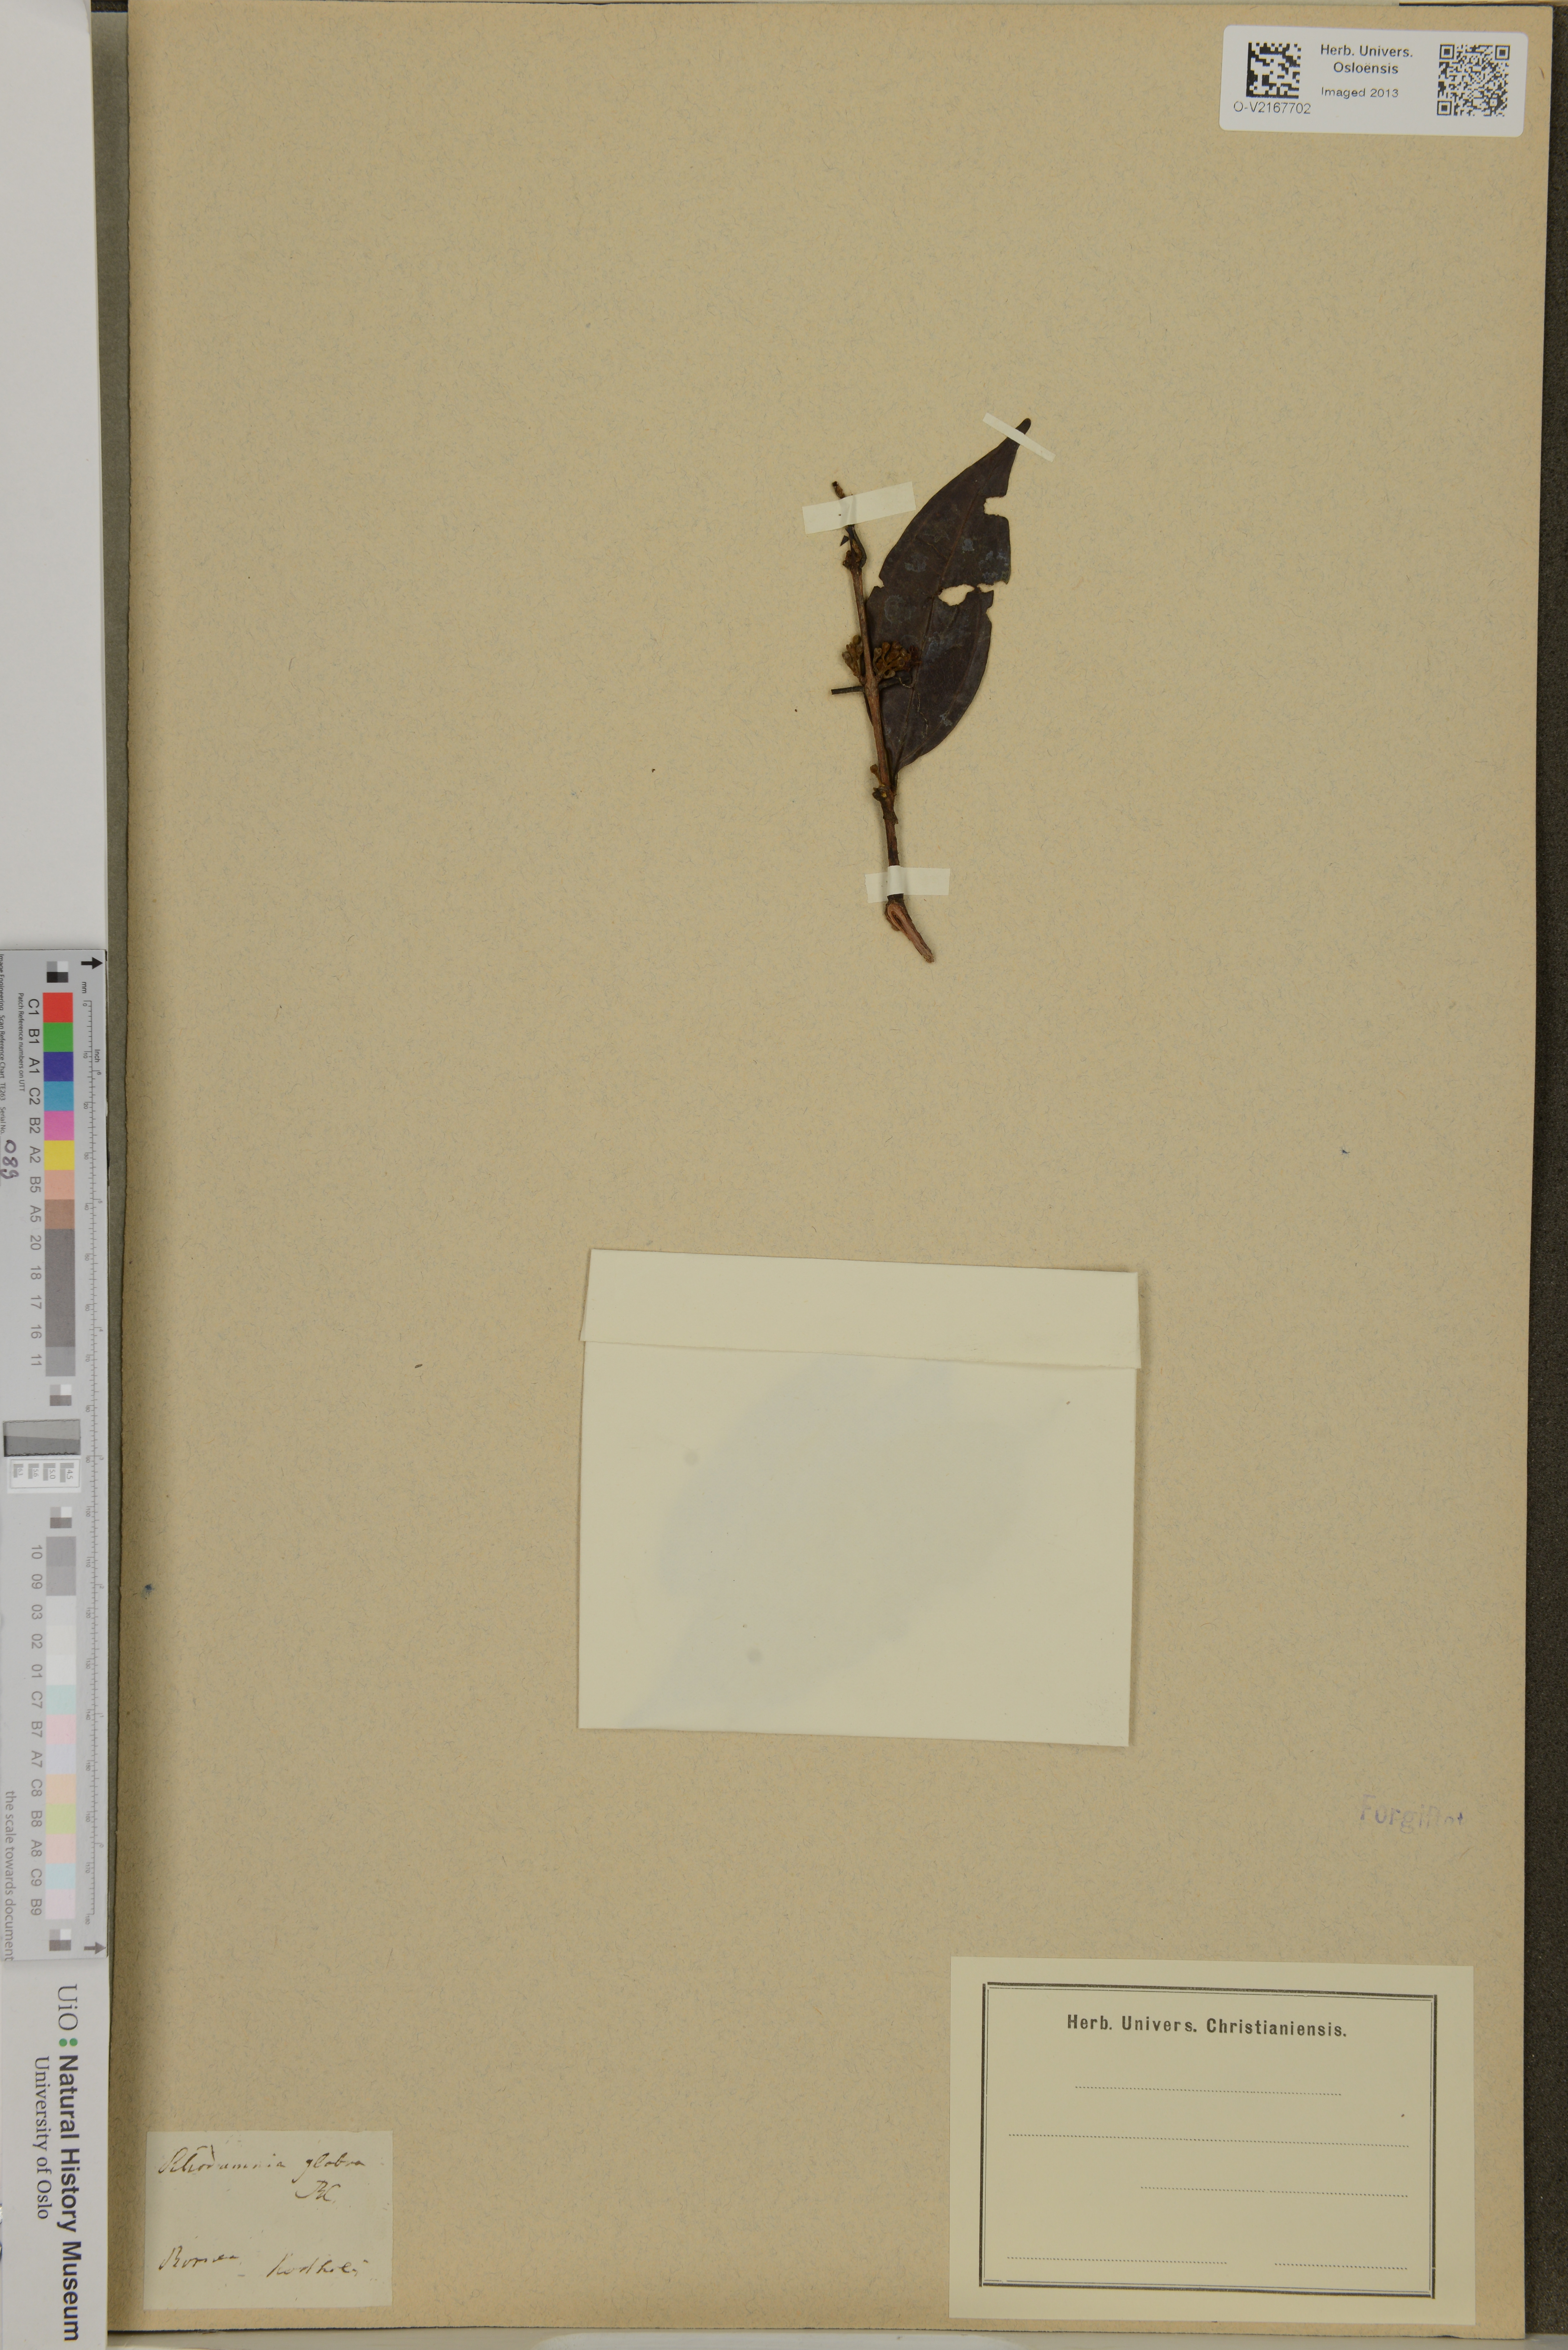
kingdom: Plantae
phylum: Tracheophyta
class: Magnoliopsida
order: Myrtales
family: Myrtaceae
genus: Rhodamnia
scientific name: Rhodamnia cinerea
